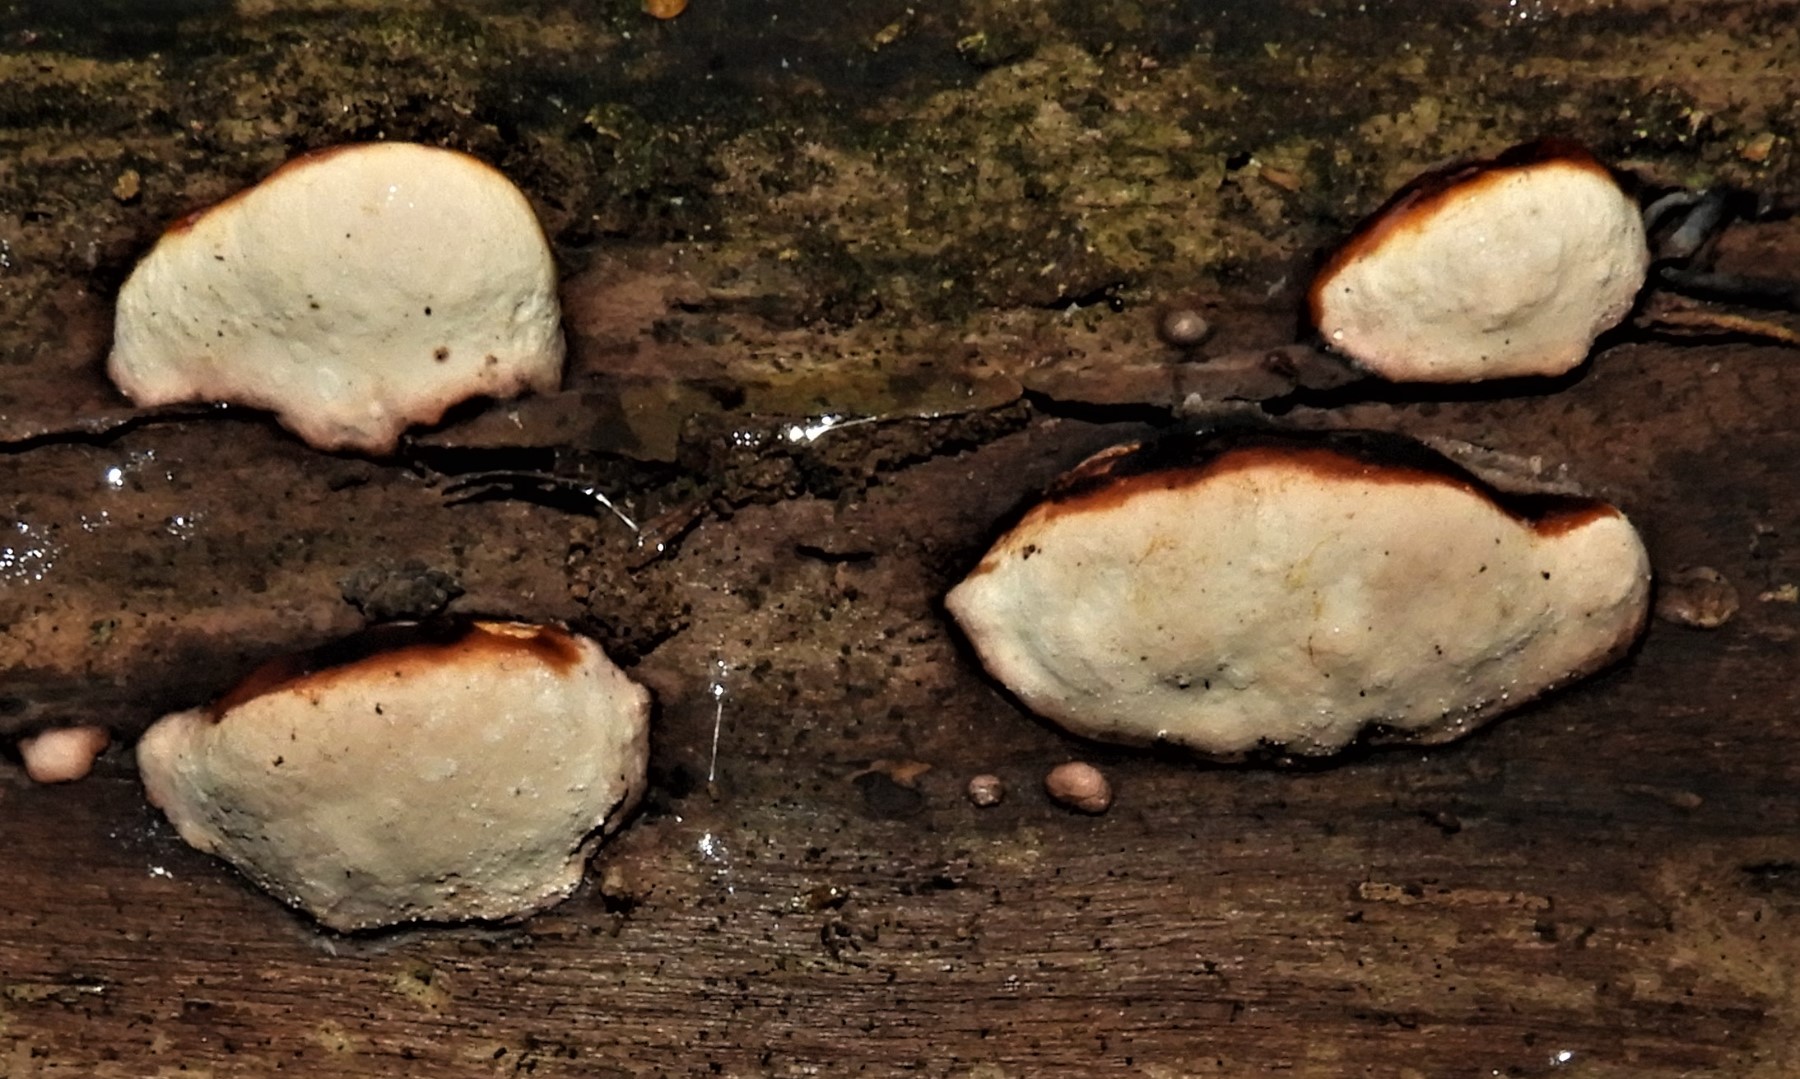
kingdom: Fungi
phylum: Basidiomycota
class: Agaricomycetes
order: Polyporales
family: Fomitopsidaceae
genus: Fomitopsis
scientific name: Fomitopsis pinicola
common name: randbæltet hovporesvamp
